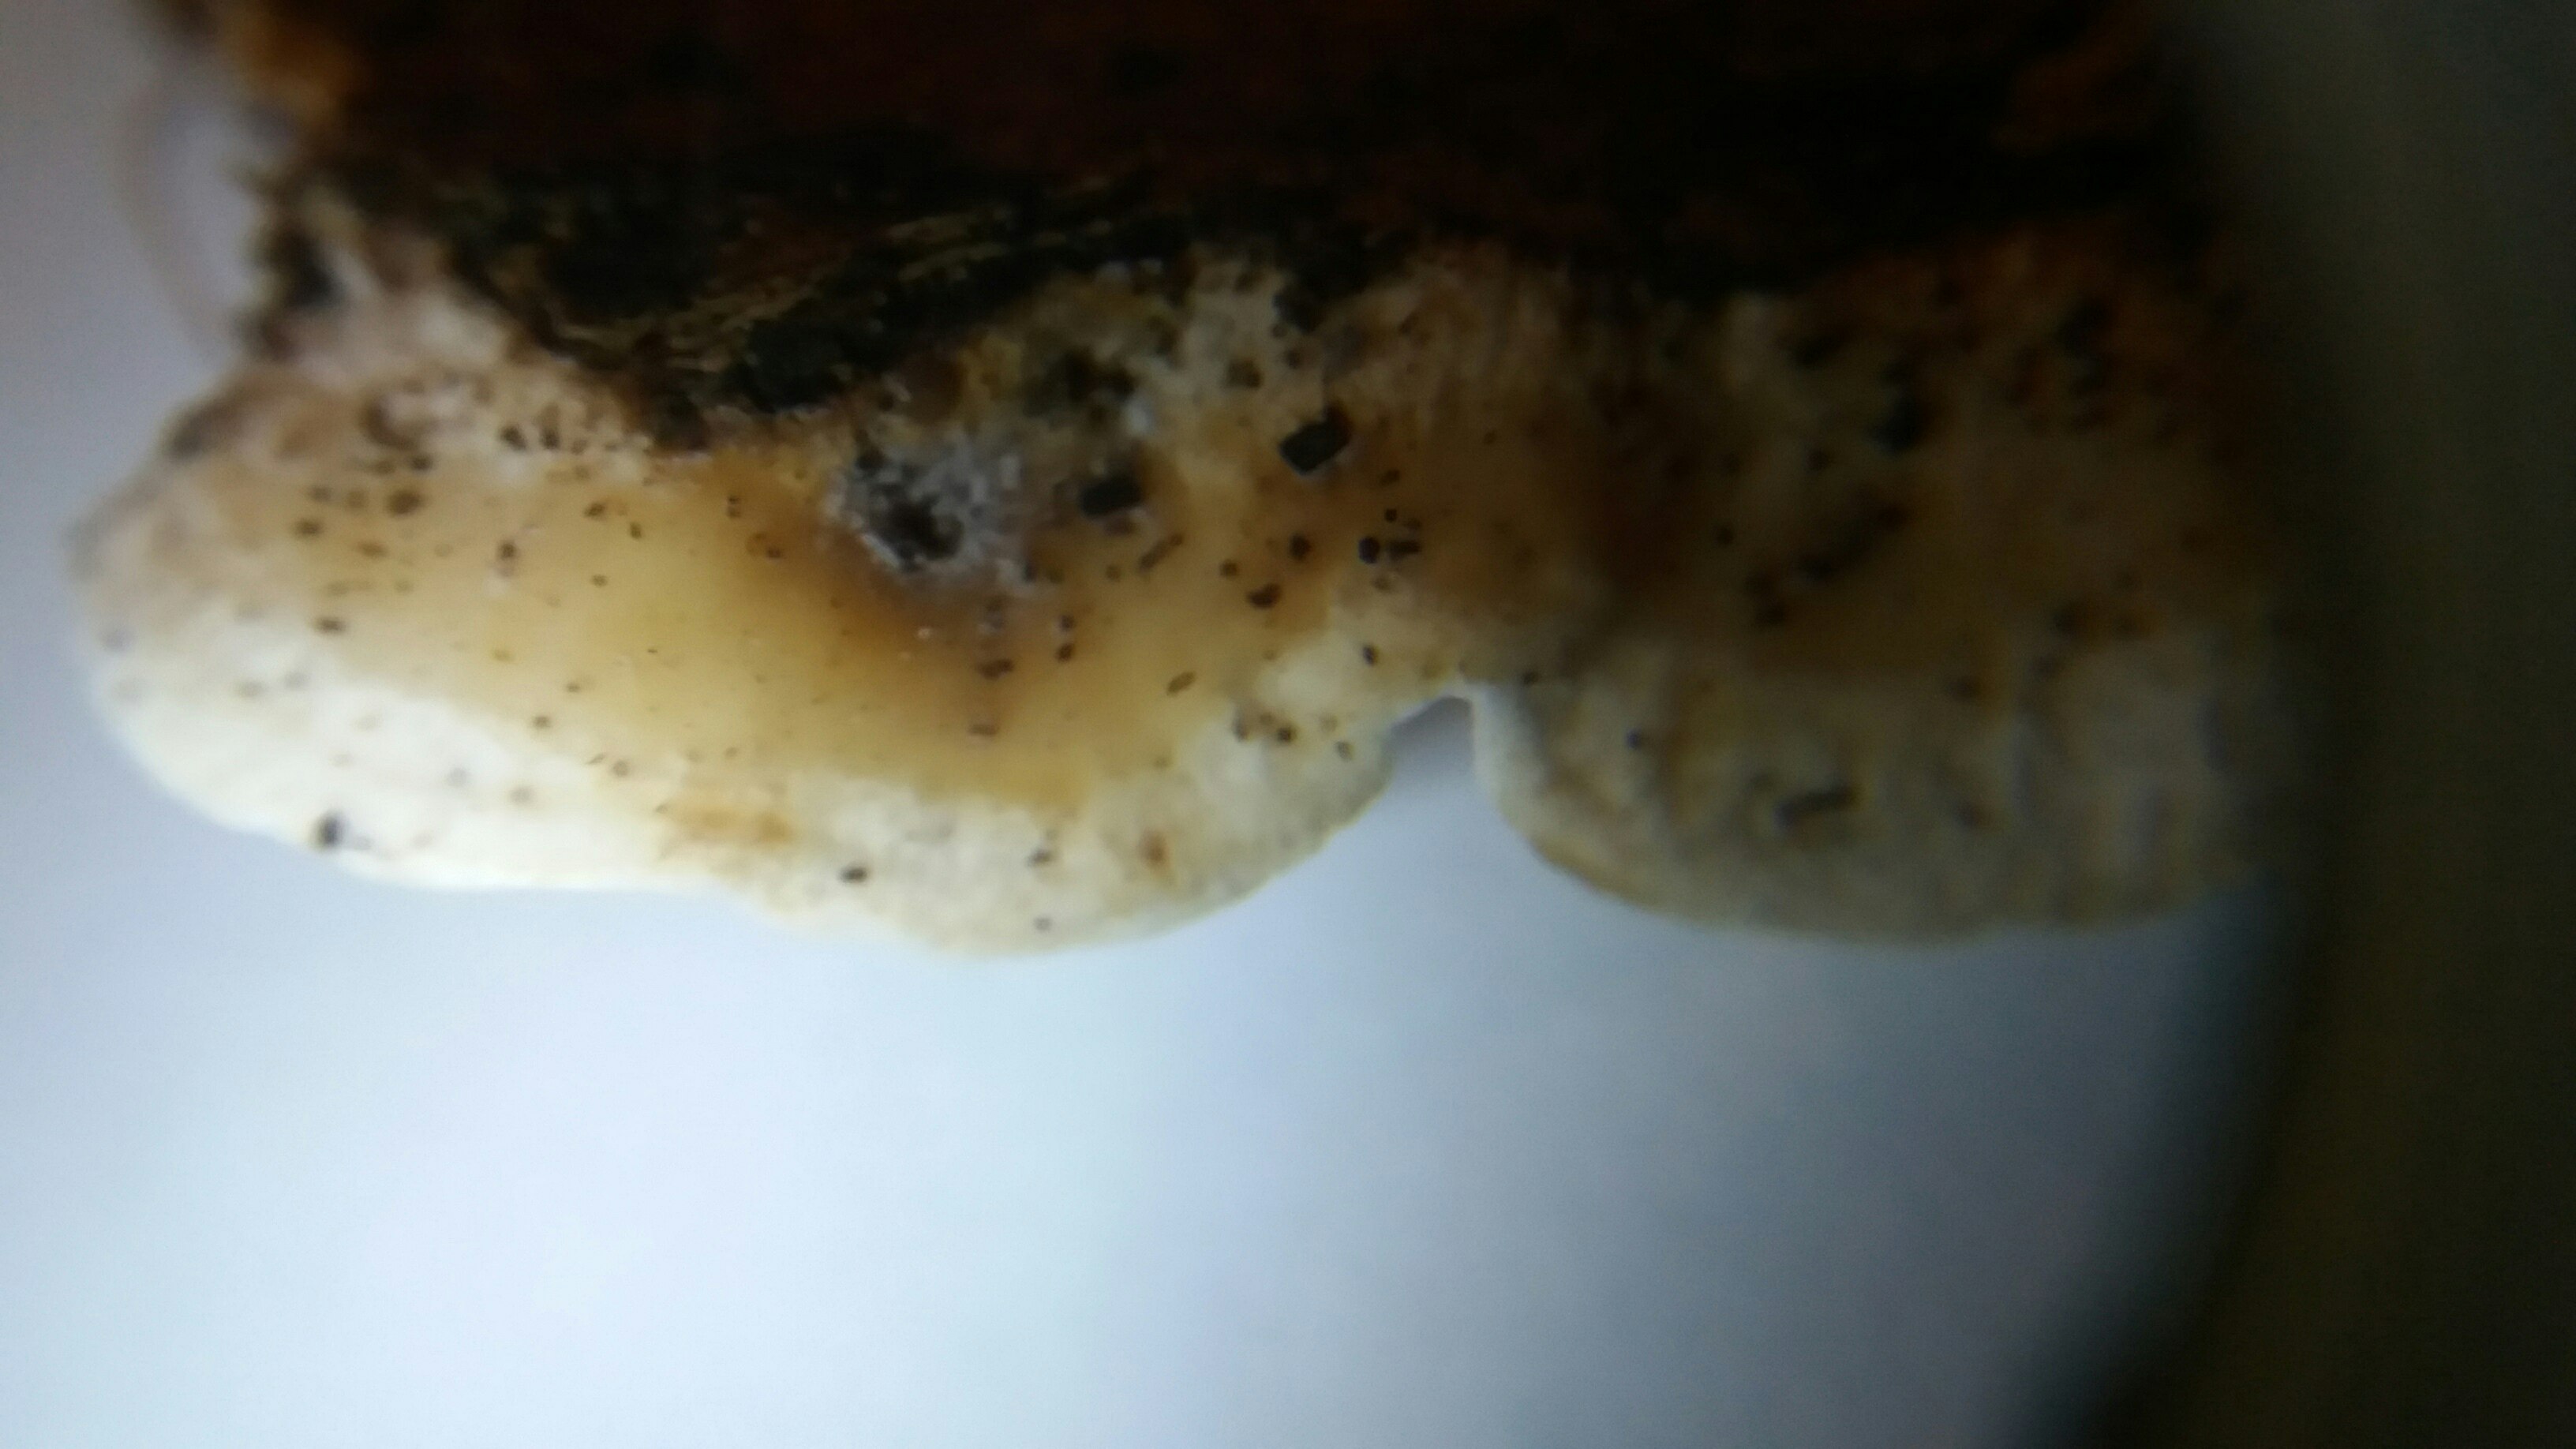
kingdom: Fungi
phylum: Basidiomycota
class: Agaricomycetes
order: Polyporales
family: Incrustoporiaceae
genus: Skeletocutis
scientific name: Skeletocutis nemoralis
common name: stor krystalporesvamp
